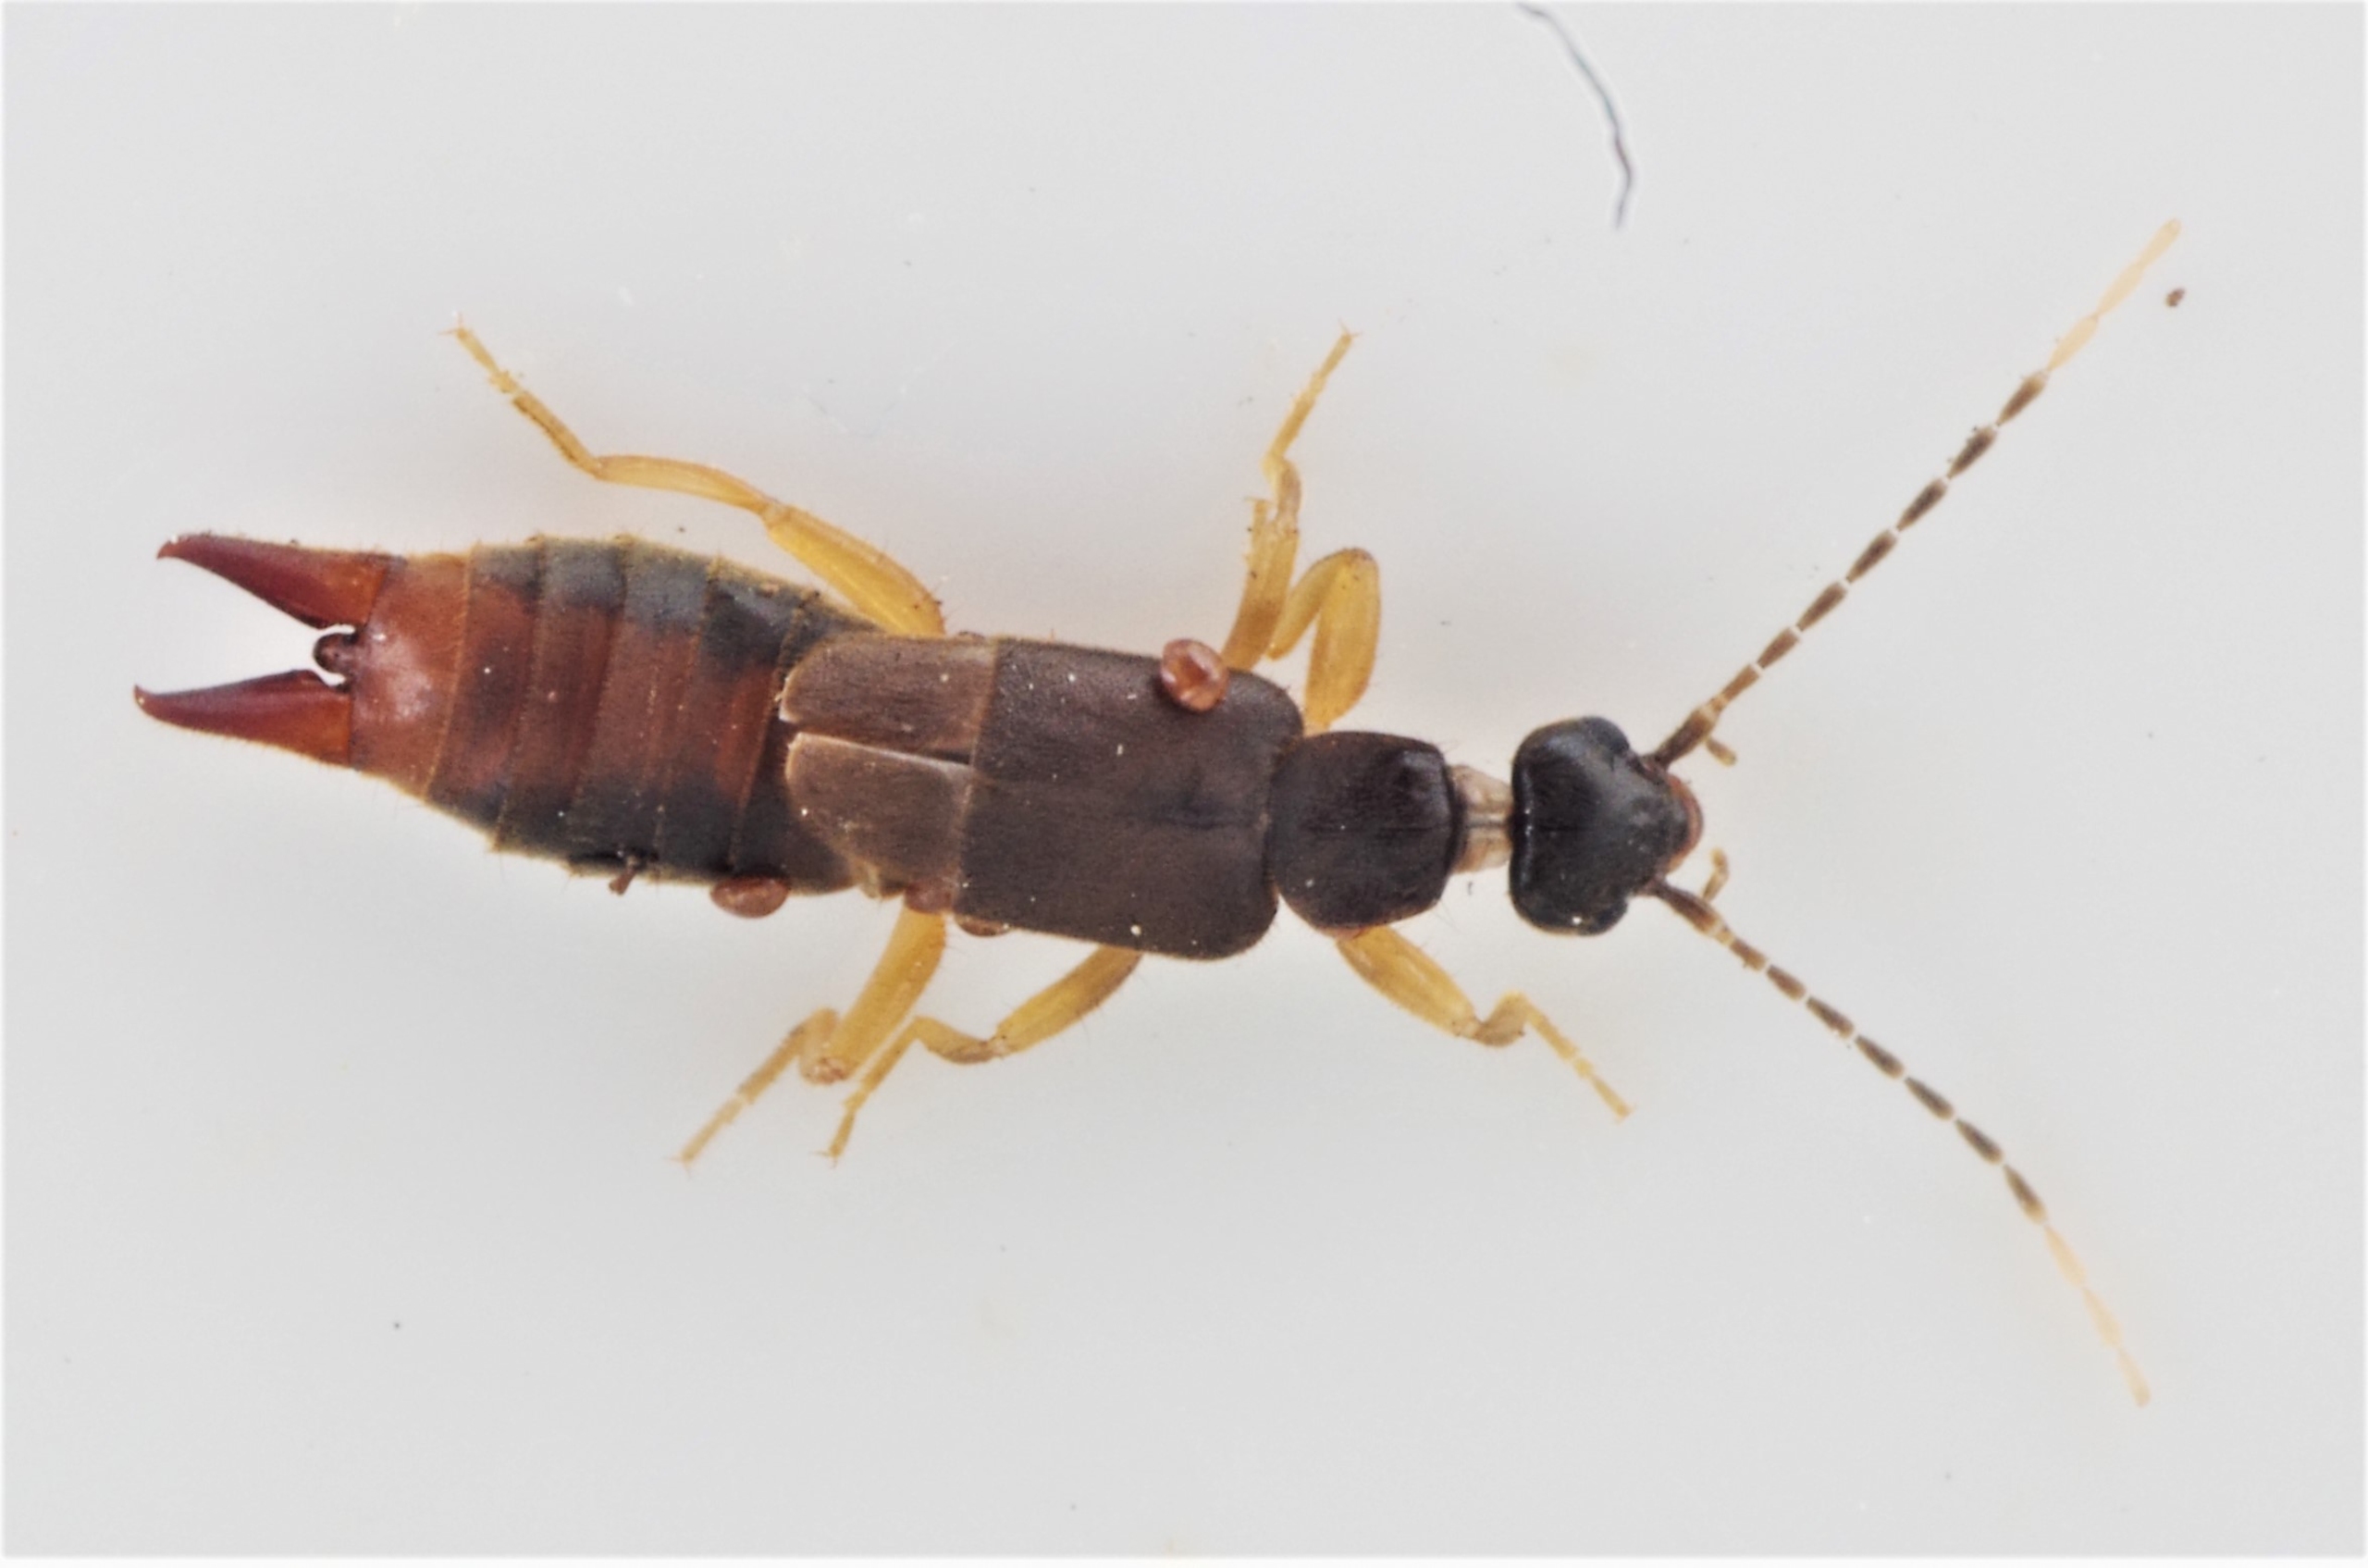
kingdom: Animalia
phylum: Arthropoda
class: Insecta
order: Dermaptera
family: Spongiphoridae
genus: Labia
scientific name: Labia minor
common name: Lille ørentvist
